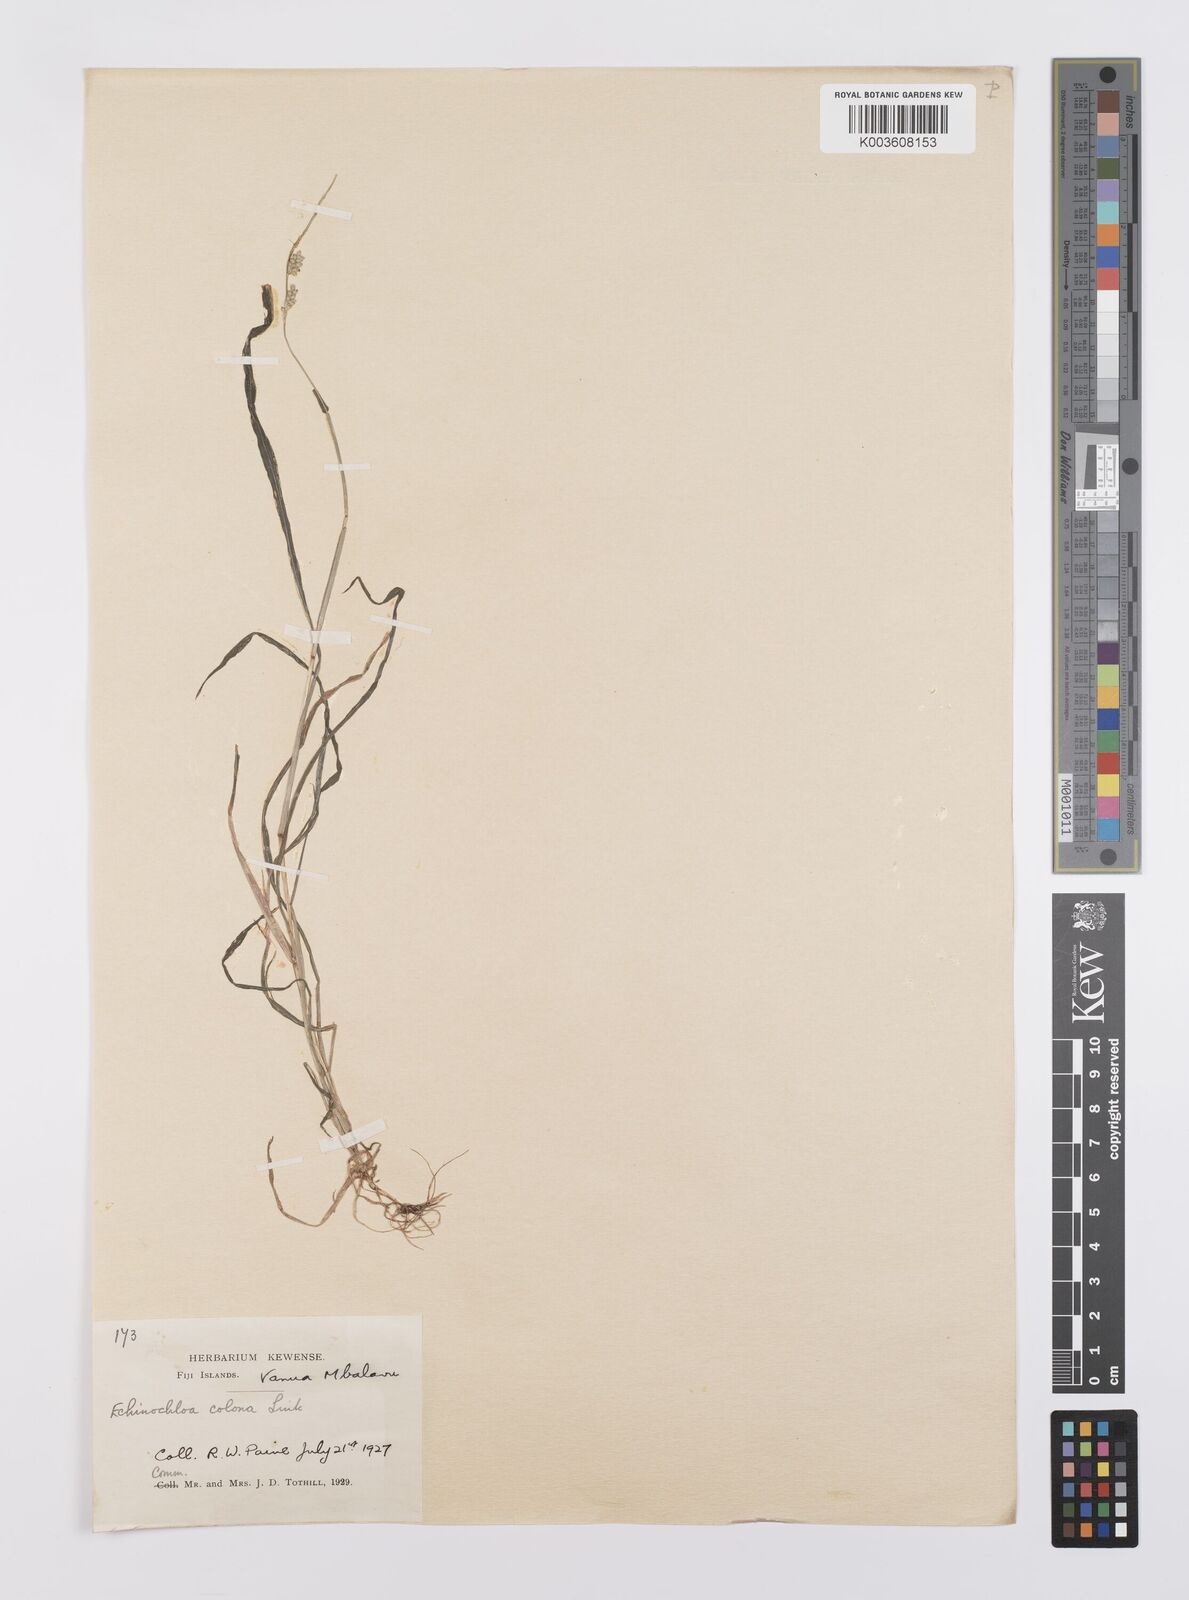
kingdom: Plantae
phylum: Tracheophyta
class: Liliopsida
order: Poales
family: Poaceae
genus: Echinochloa
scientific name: Echinochloa colonum
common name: Jungle rice
